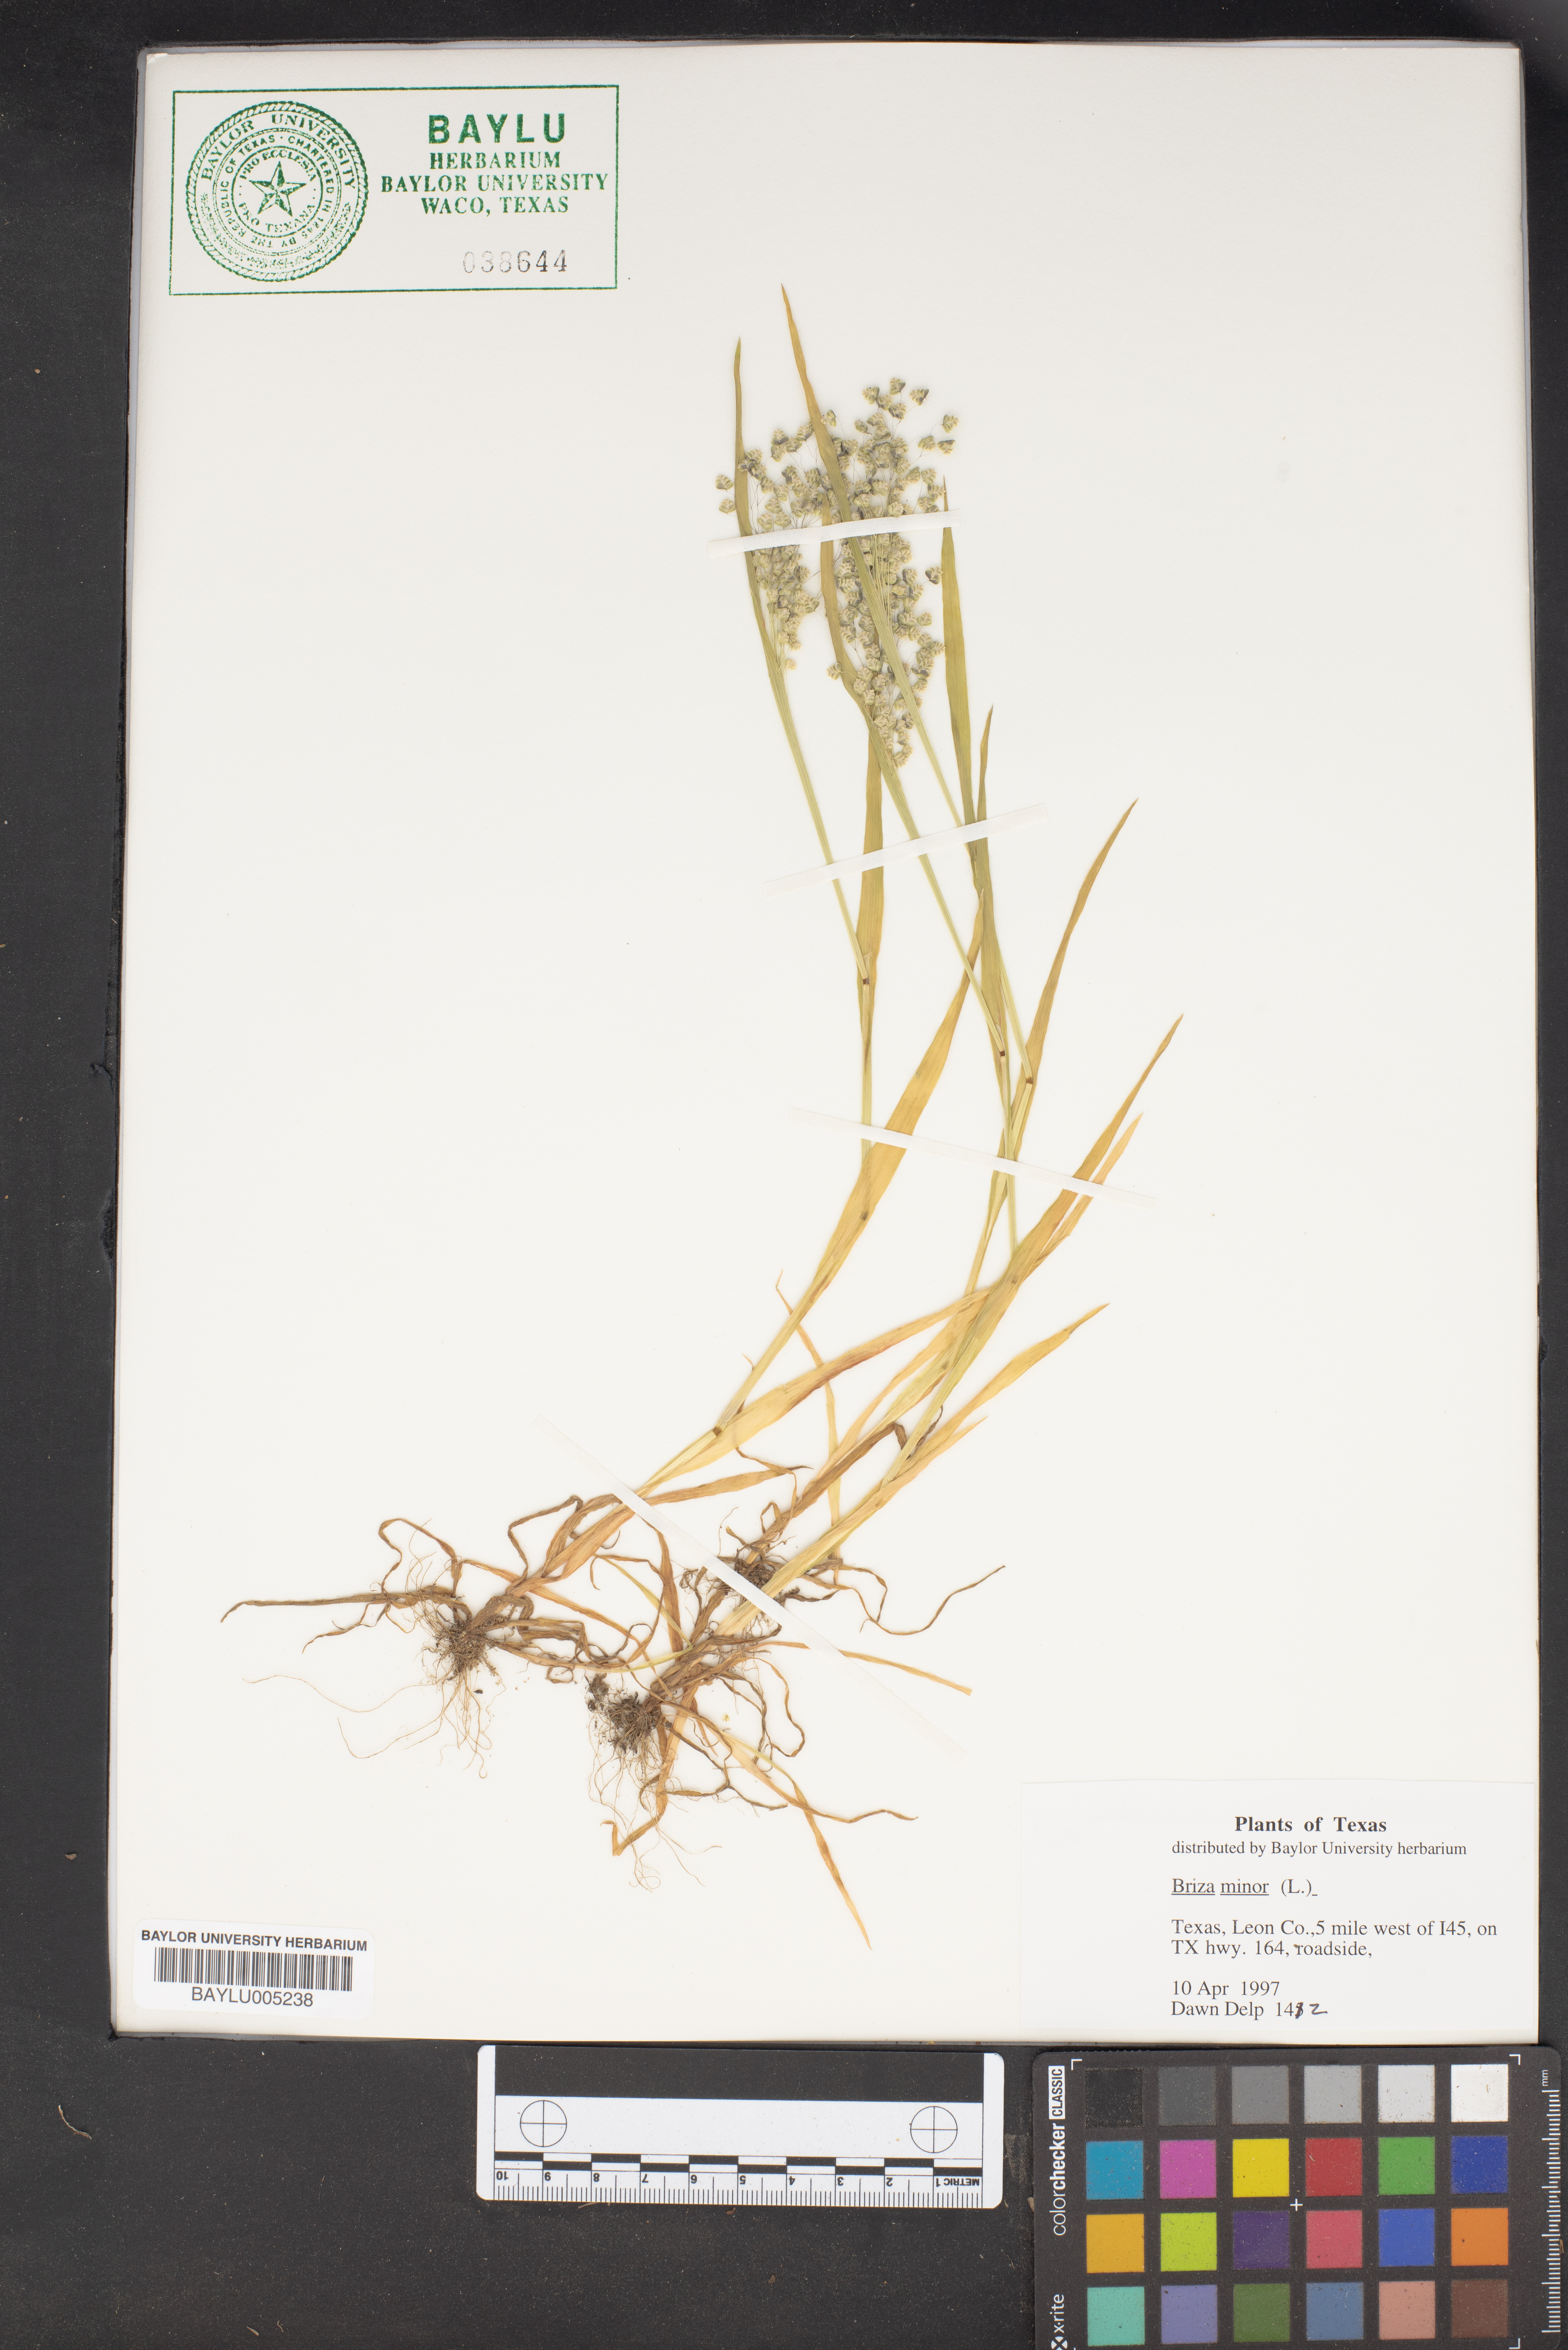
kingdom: Plantae
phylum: Tracheophyta
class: Liliopsida
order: Poales
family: Poaceae
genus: Briza
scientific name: Briza minor
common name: Lesser quaking-grass
